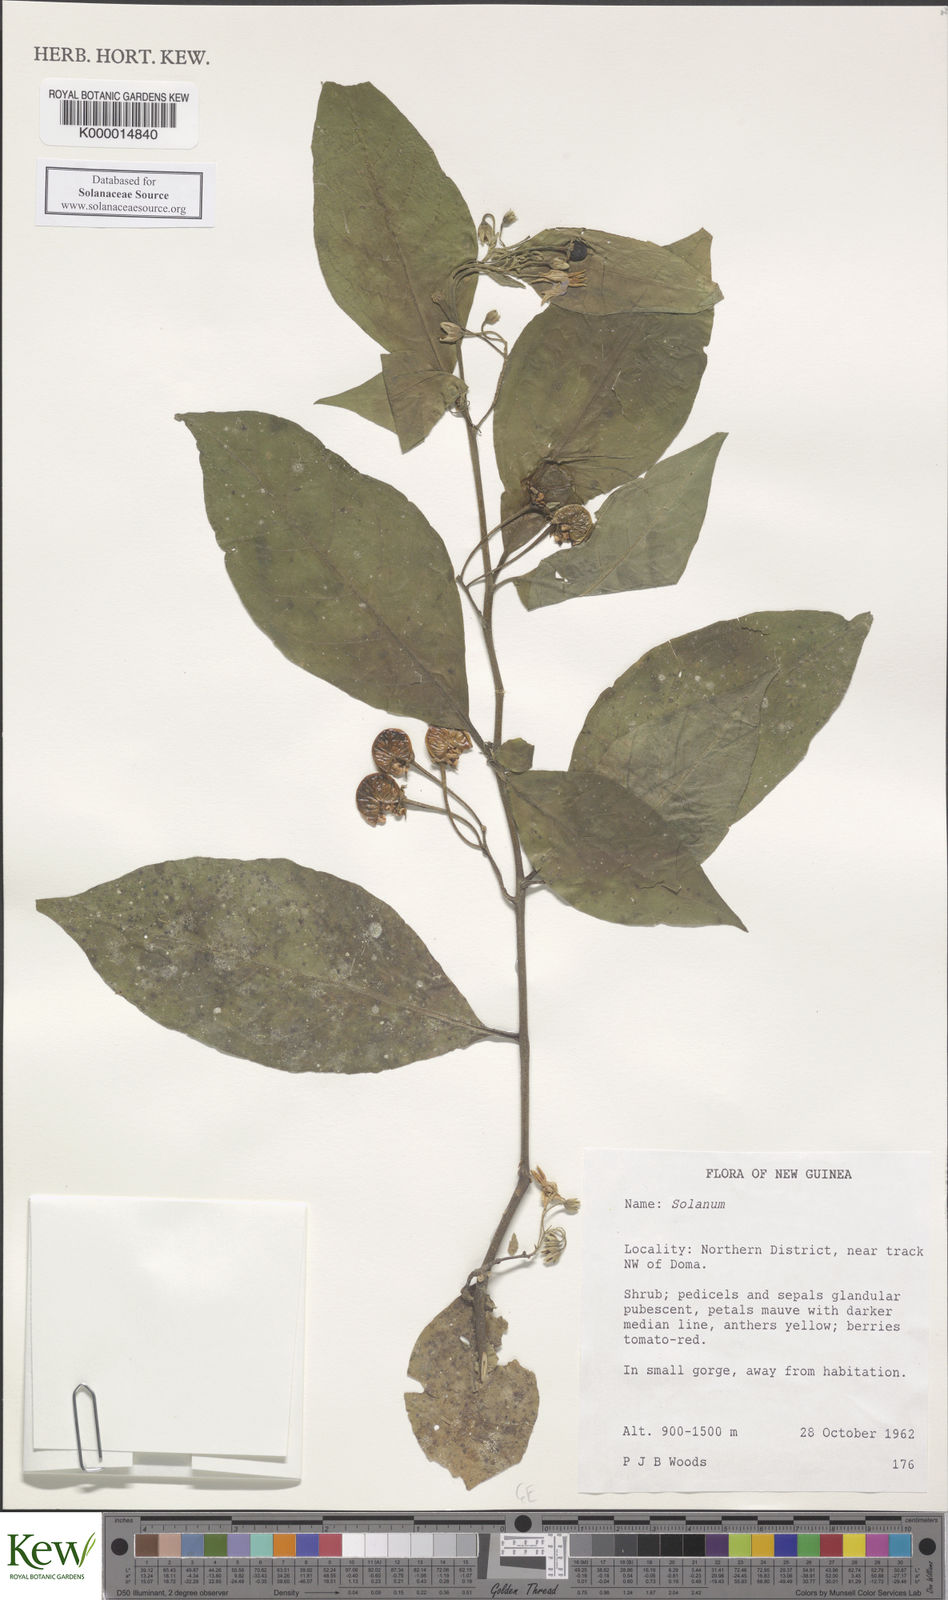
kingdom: Plantae
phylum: Tracheophyta
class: Magnoliopsida
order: Solanales
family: Solanaceae
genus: Solanum
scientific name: Solanum dunalianum
